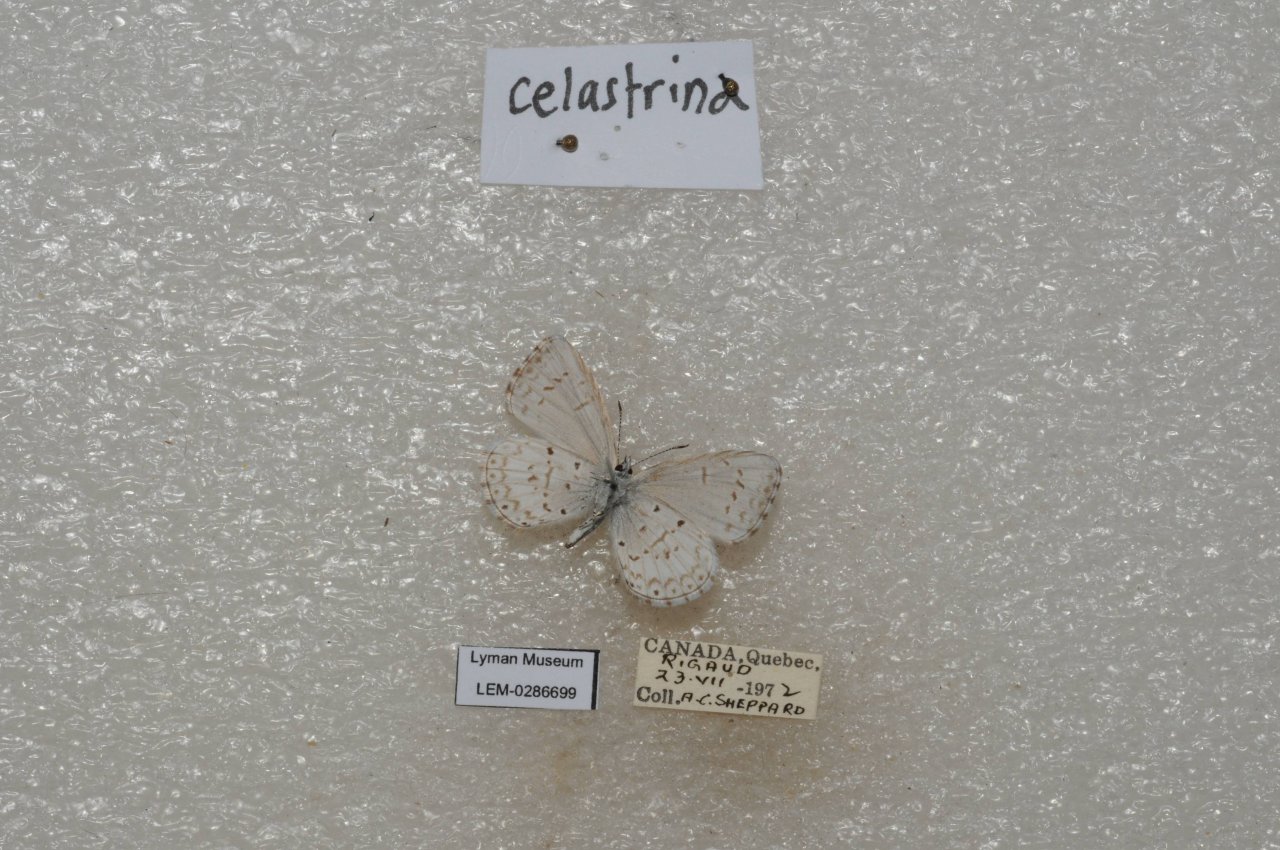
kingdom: Animalia
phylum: Arthropoda
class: Insecta
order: Lepidoptera
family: Lycaenidae
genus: Celastrina
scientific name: Celastrina lucia
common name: Northern Spring Azure
